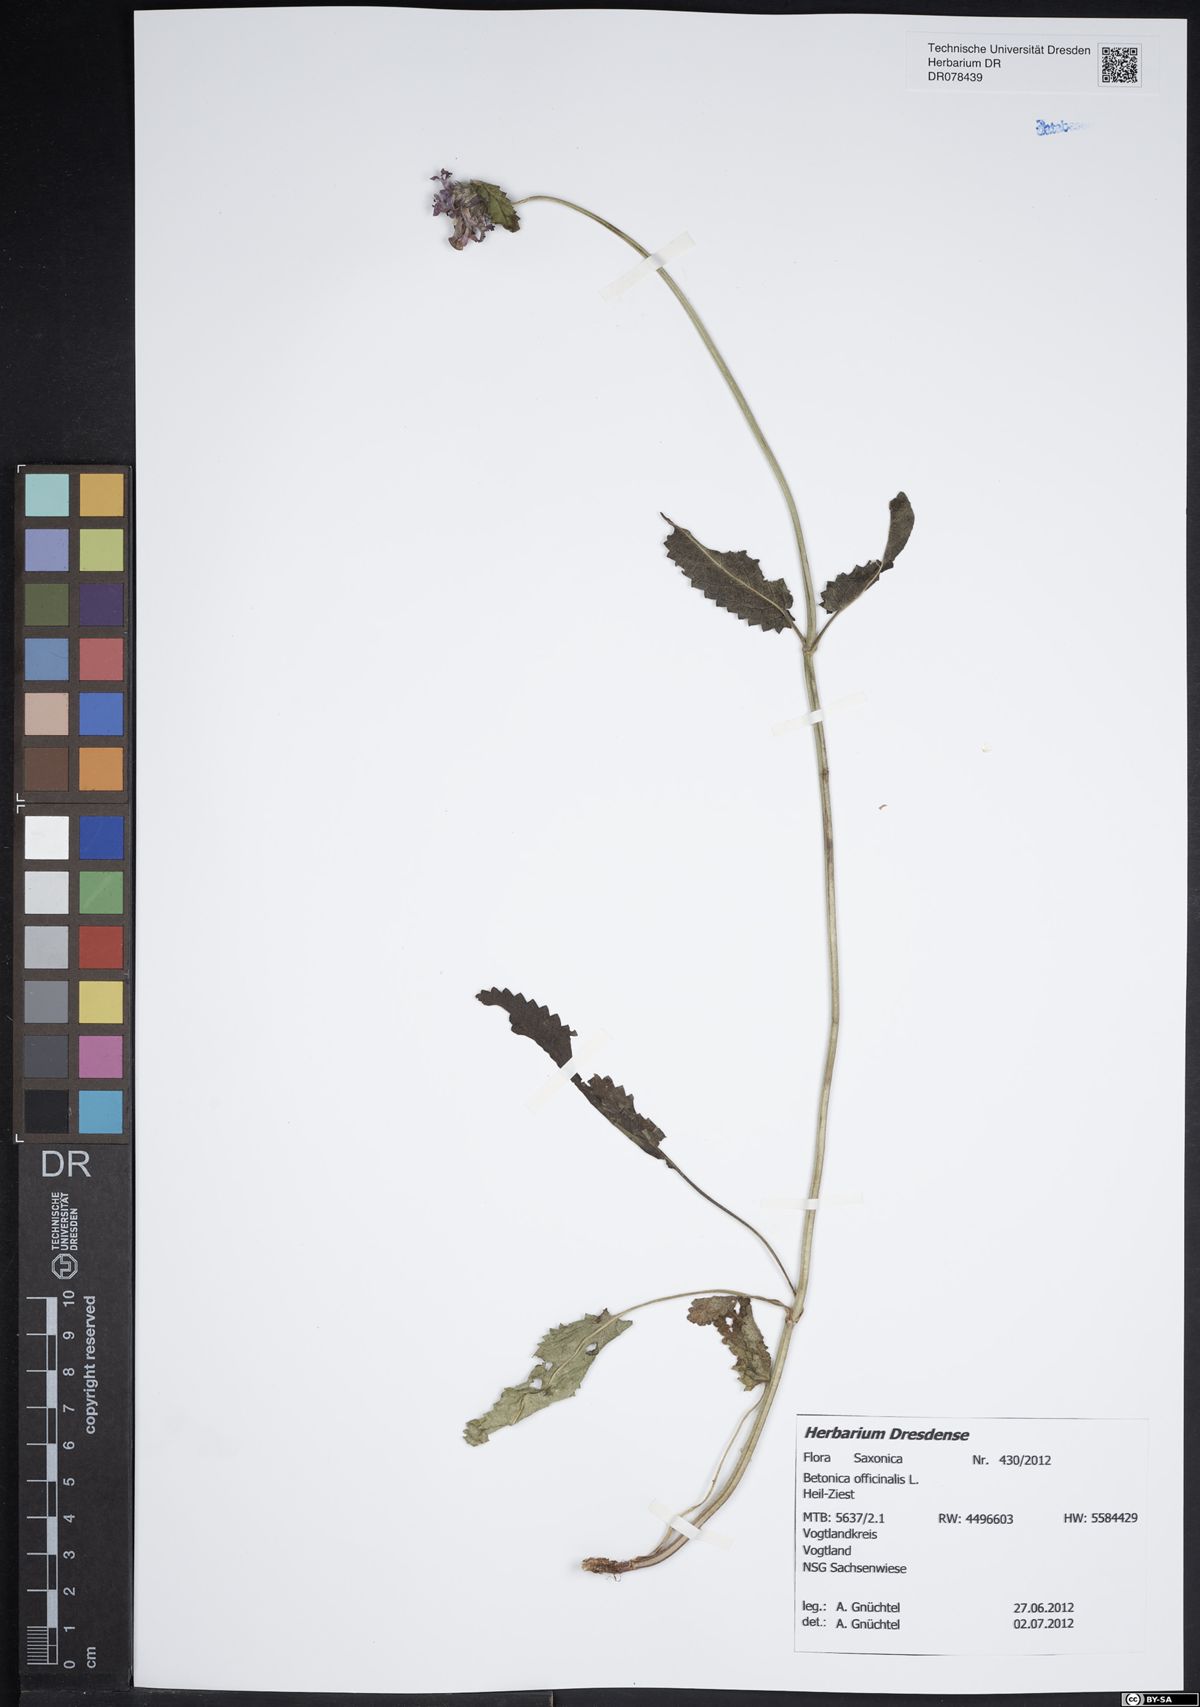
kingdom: Plantae
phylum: Tracheophyta
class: Magnoliopsida
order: Lamiales
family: Lamiaceae
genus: Betonica
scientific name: Betonica officinalis
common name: Bishop's-wort
